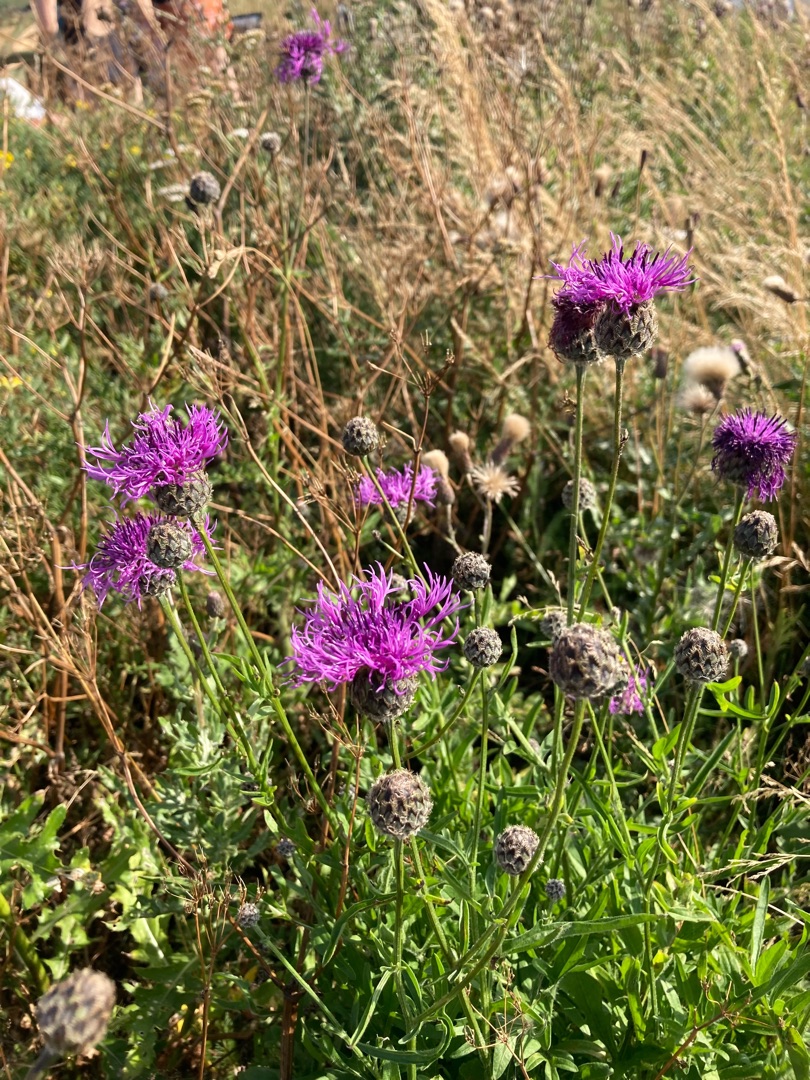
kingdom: Plantae
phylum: Tracheophyta
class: Magnoliopsida
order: Asterales
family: Asteraceae
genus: Centaurea
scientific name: Centaurea scabiosa
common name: Stor knopurt
